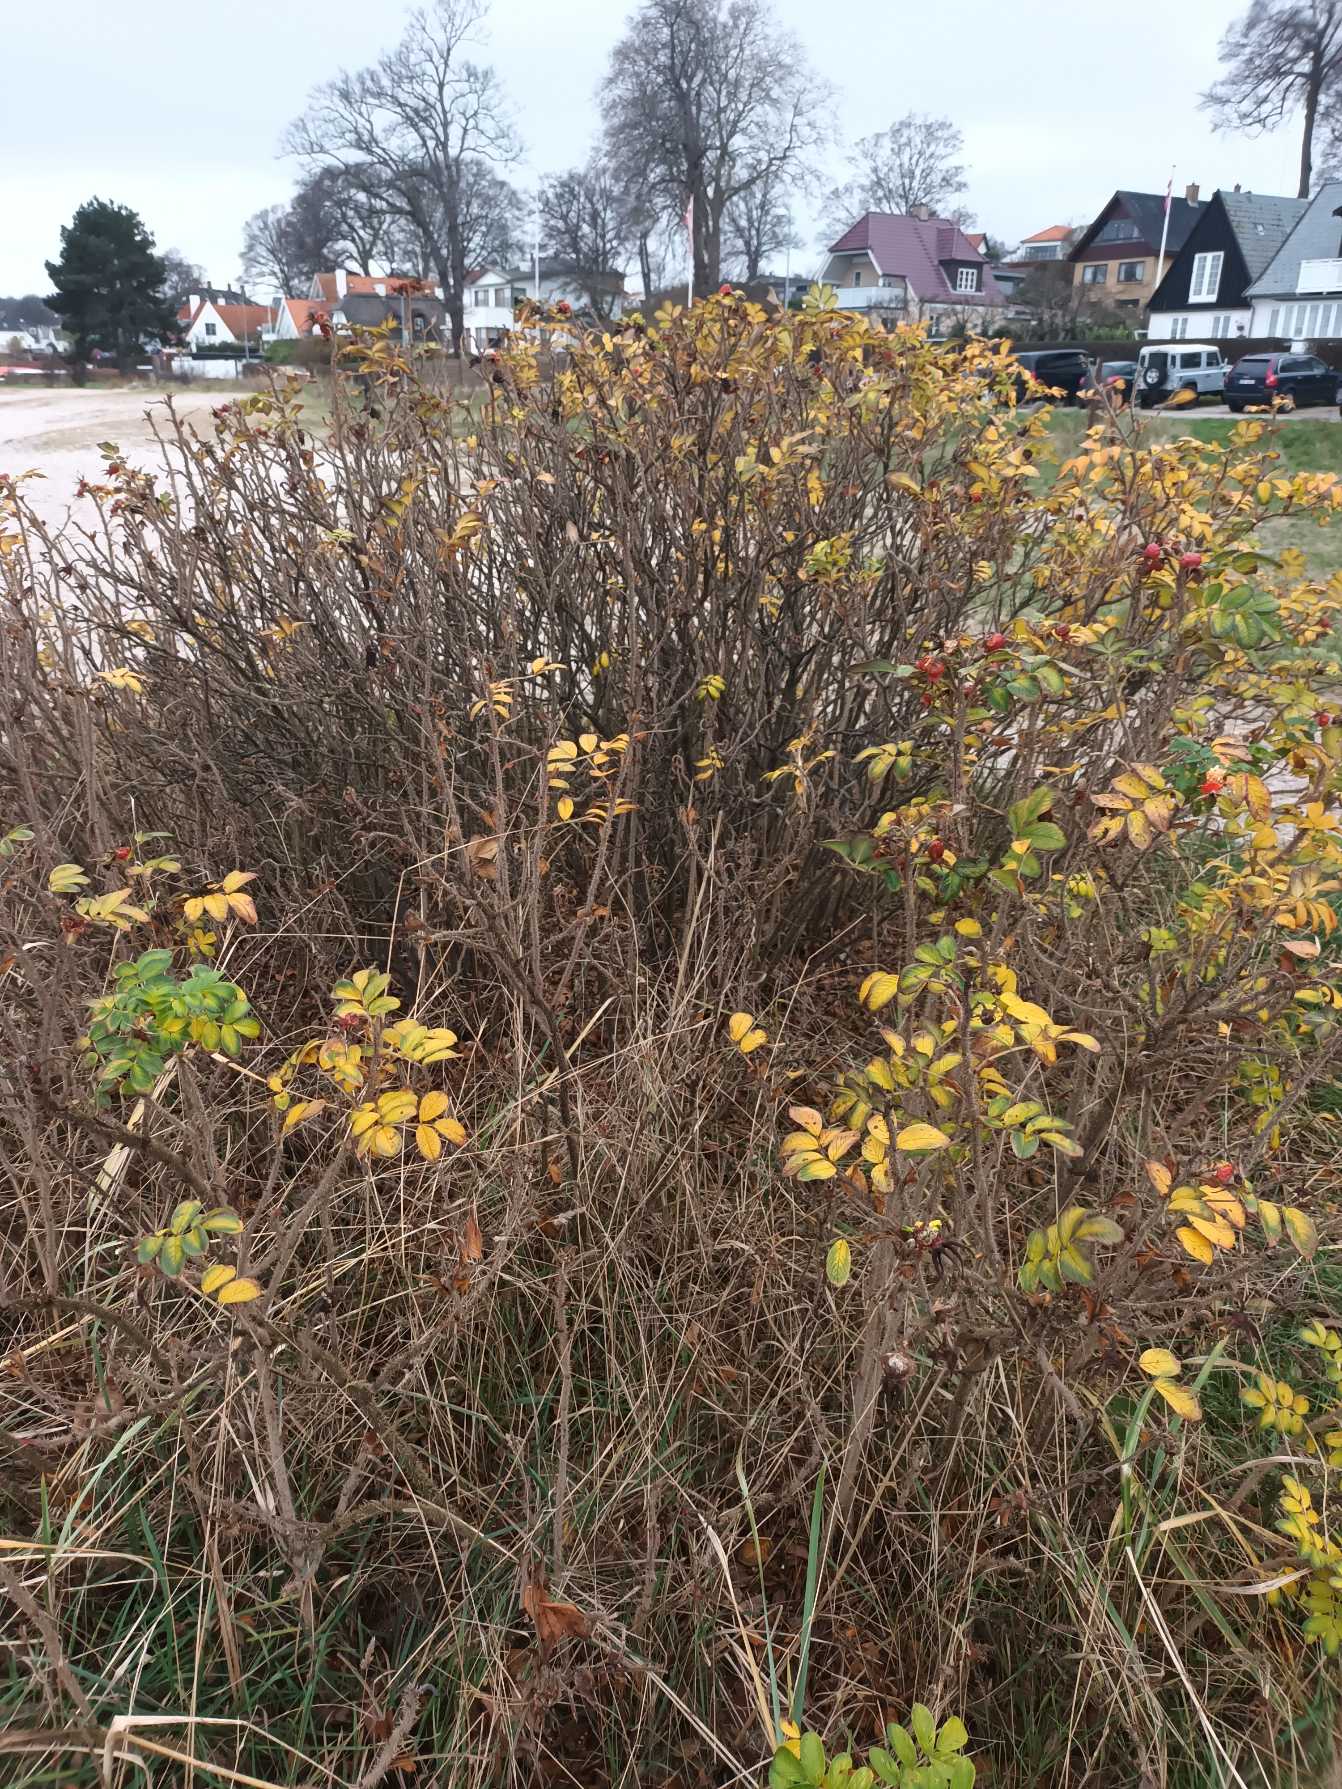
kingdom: Plantae
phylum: Tracheophyta
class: Magnoliopsida
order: Rosales
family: Rosaceae
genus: Rosa
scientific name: Rosa rugosa
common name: Rynket rose
